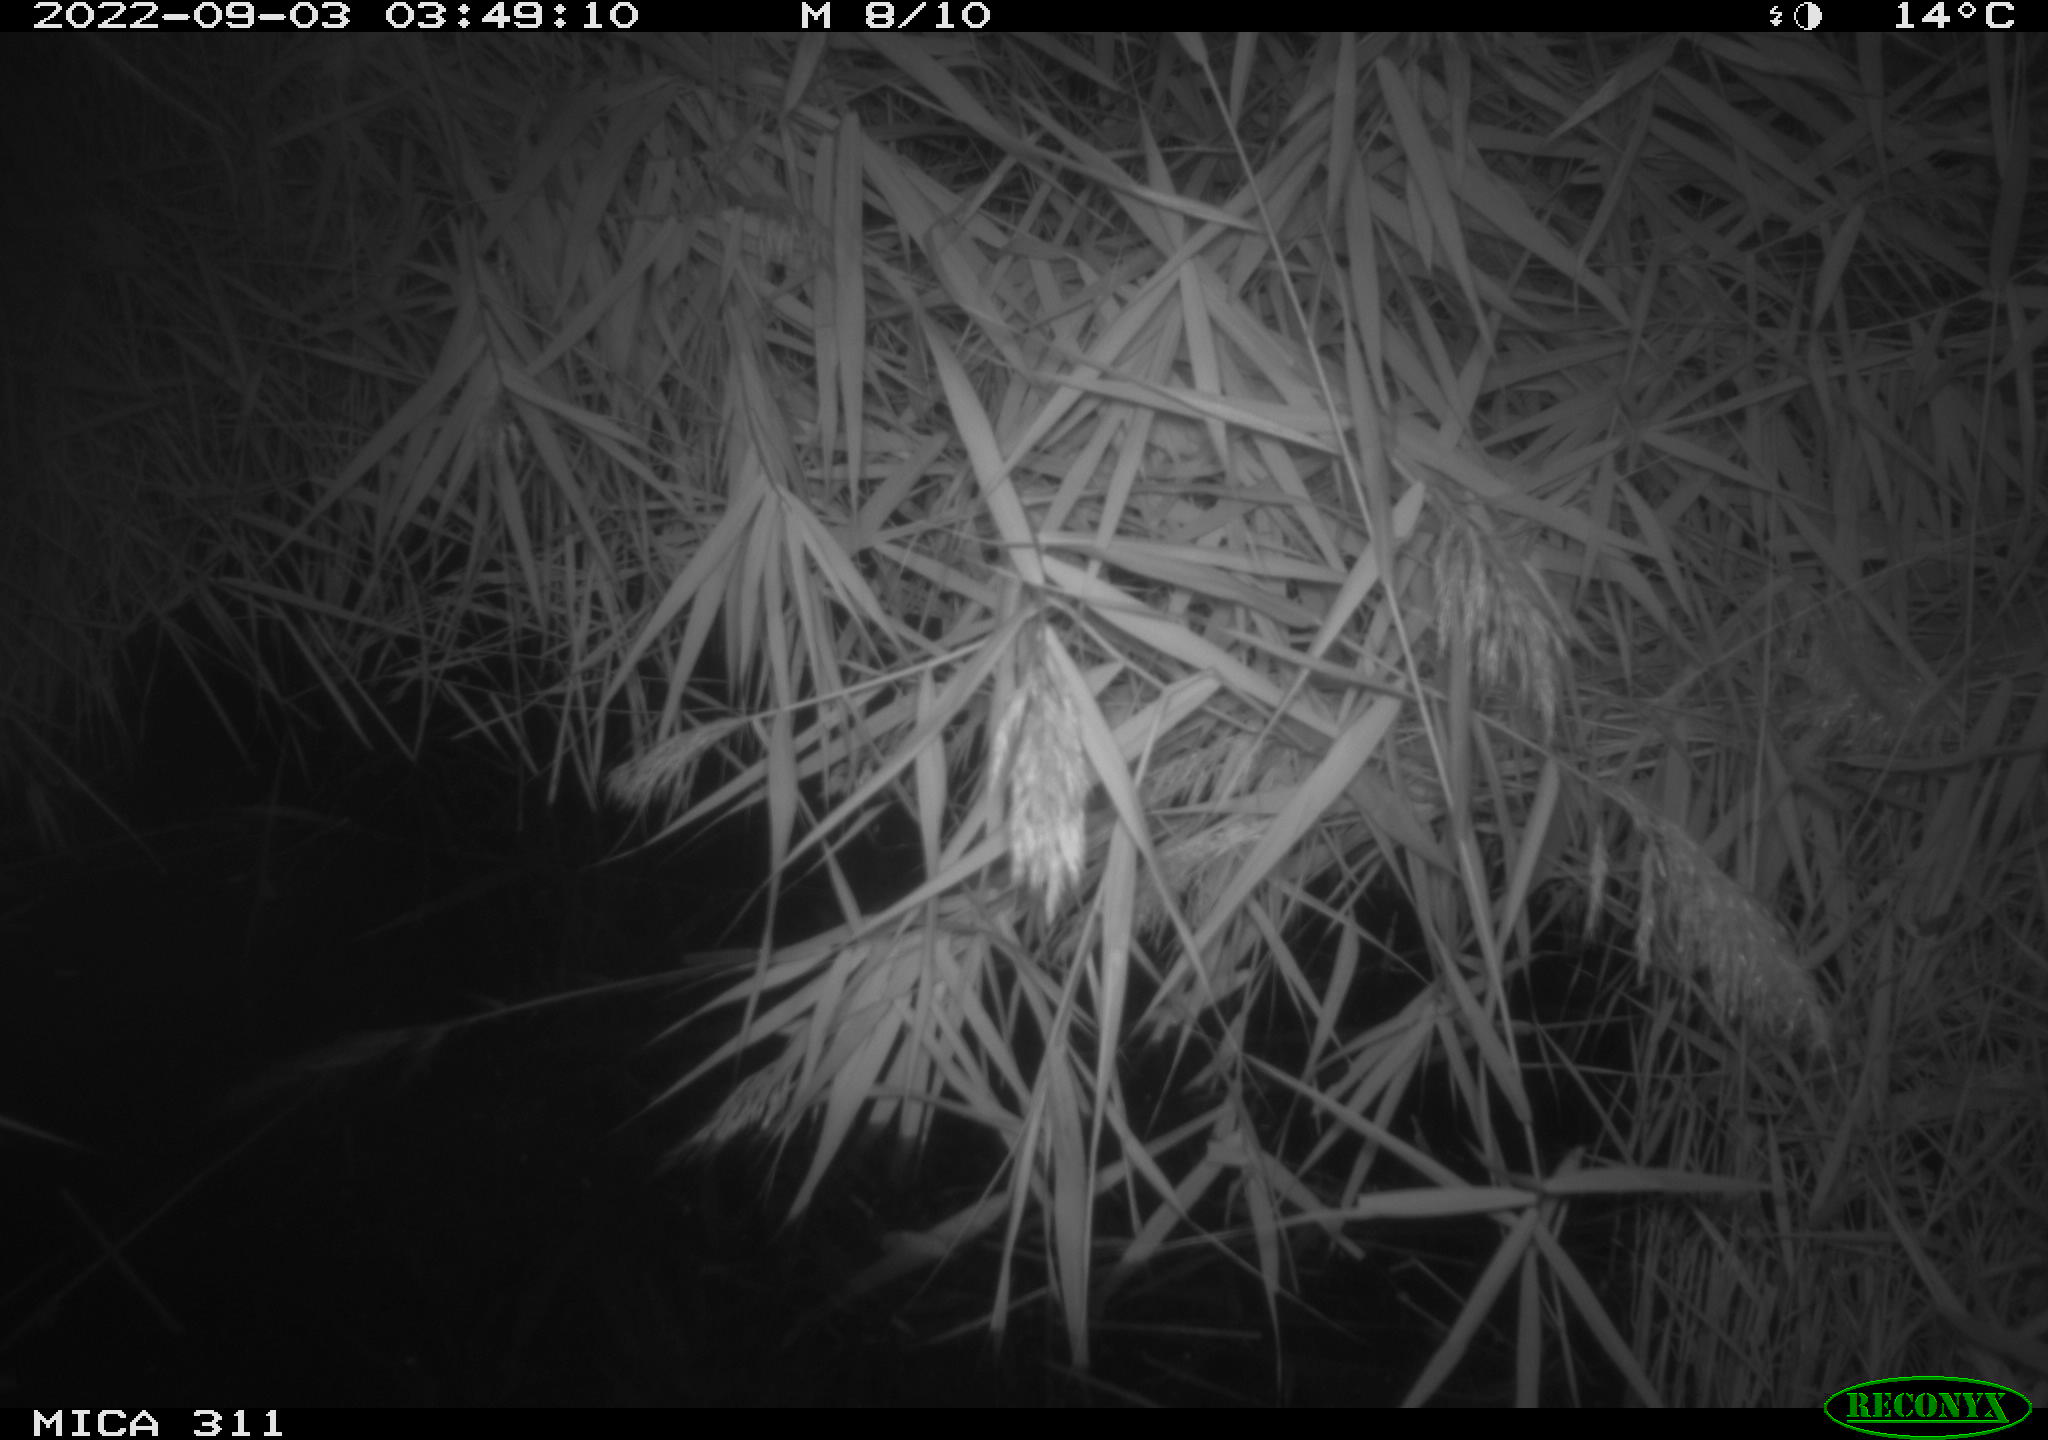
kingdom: Animalia
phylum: Chordata
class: Mammalia
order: Rodentia
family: Muridae
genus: Rattus
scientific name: Rattus norvegicus
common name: Brown rat
